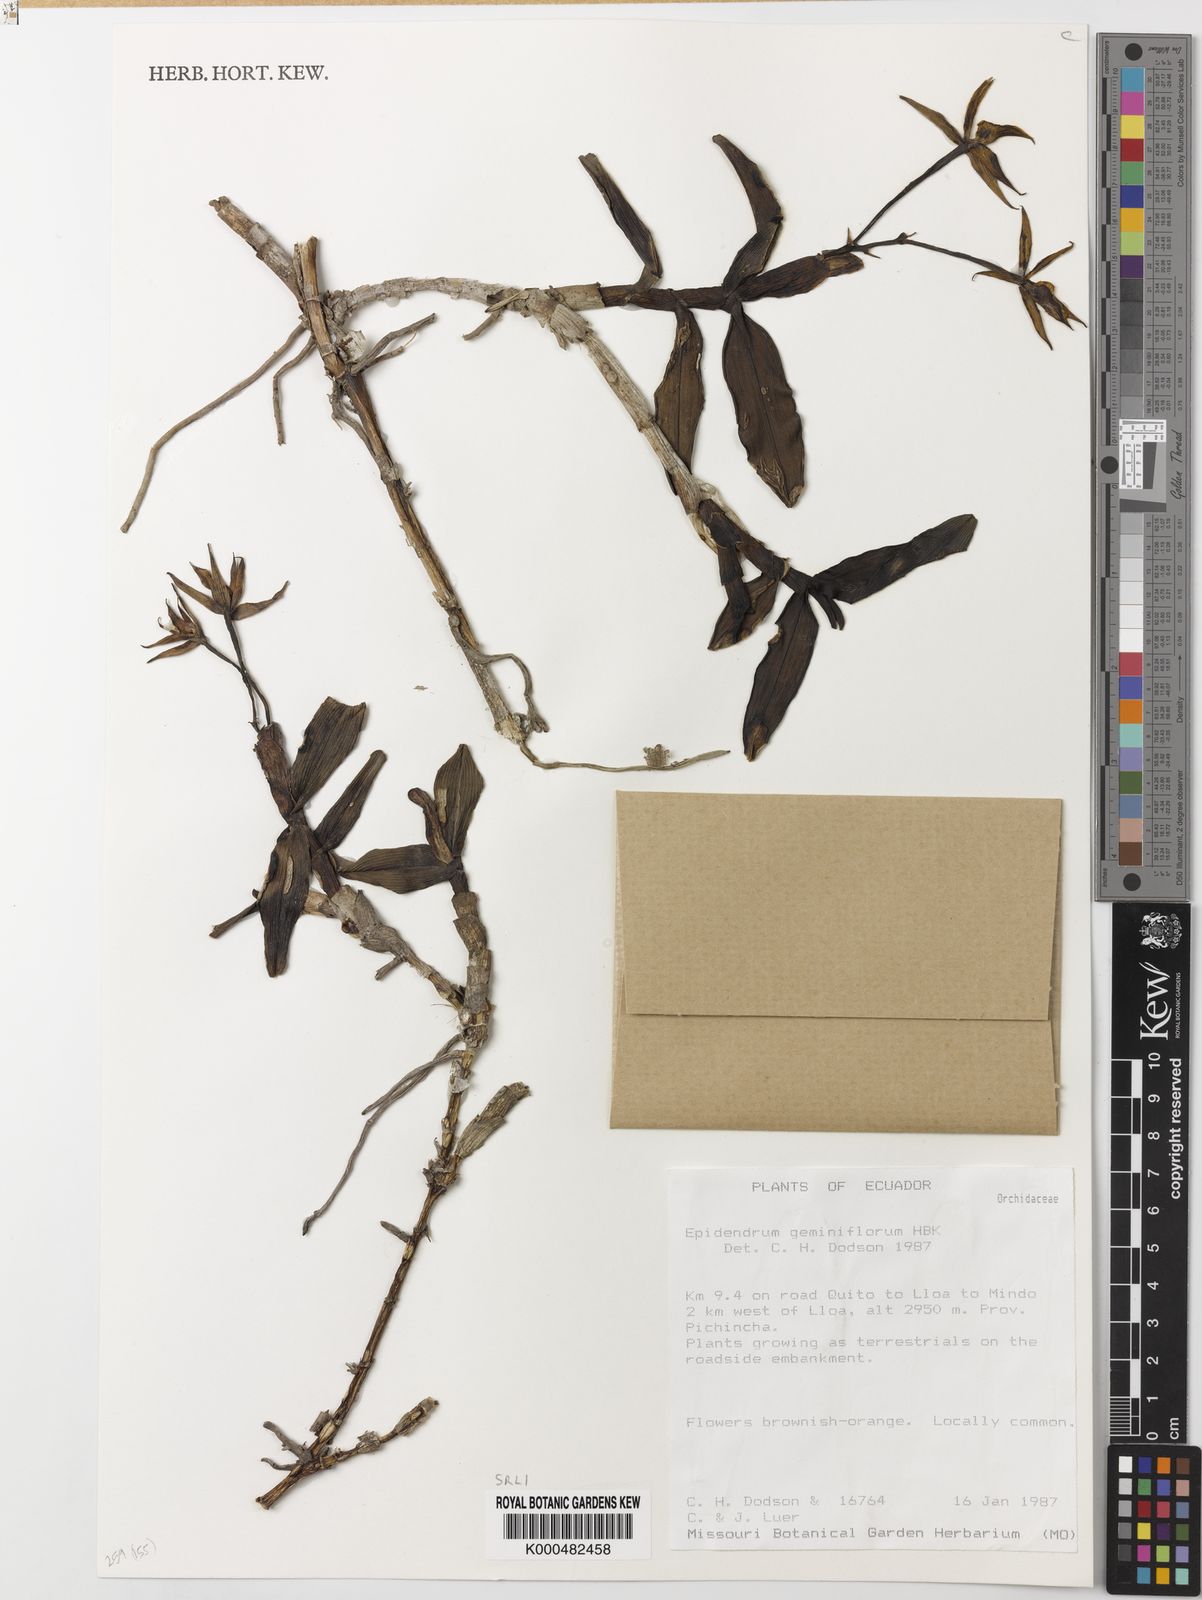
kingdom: Plantae
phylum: Tracheophyta
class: Liliopsida
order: Asparagales
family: Orchidaceae
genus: Epidendrum
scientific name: Epidendrum geminiflorum
